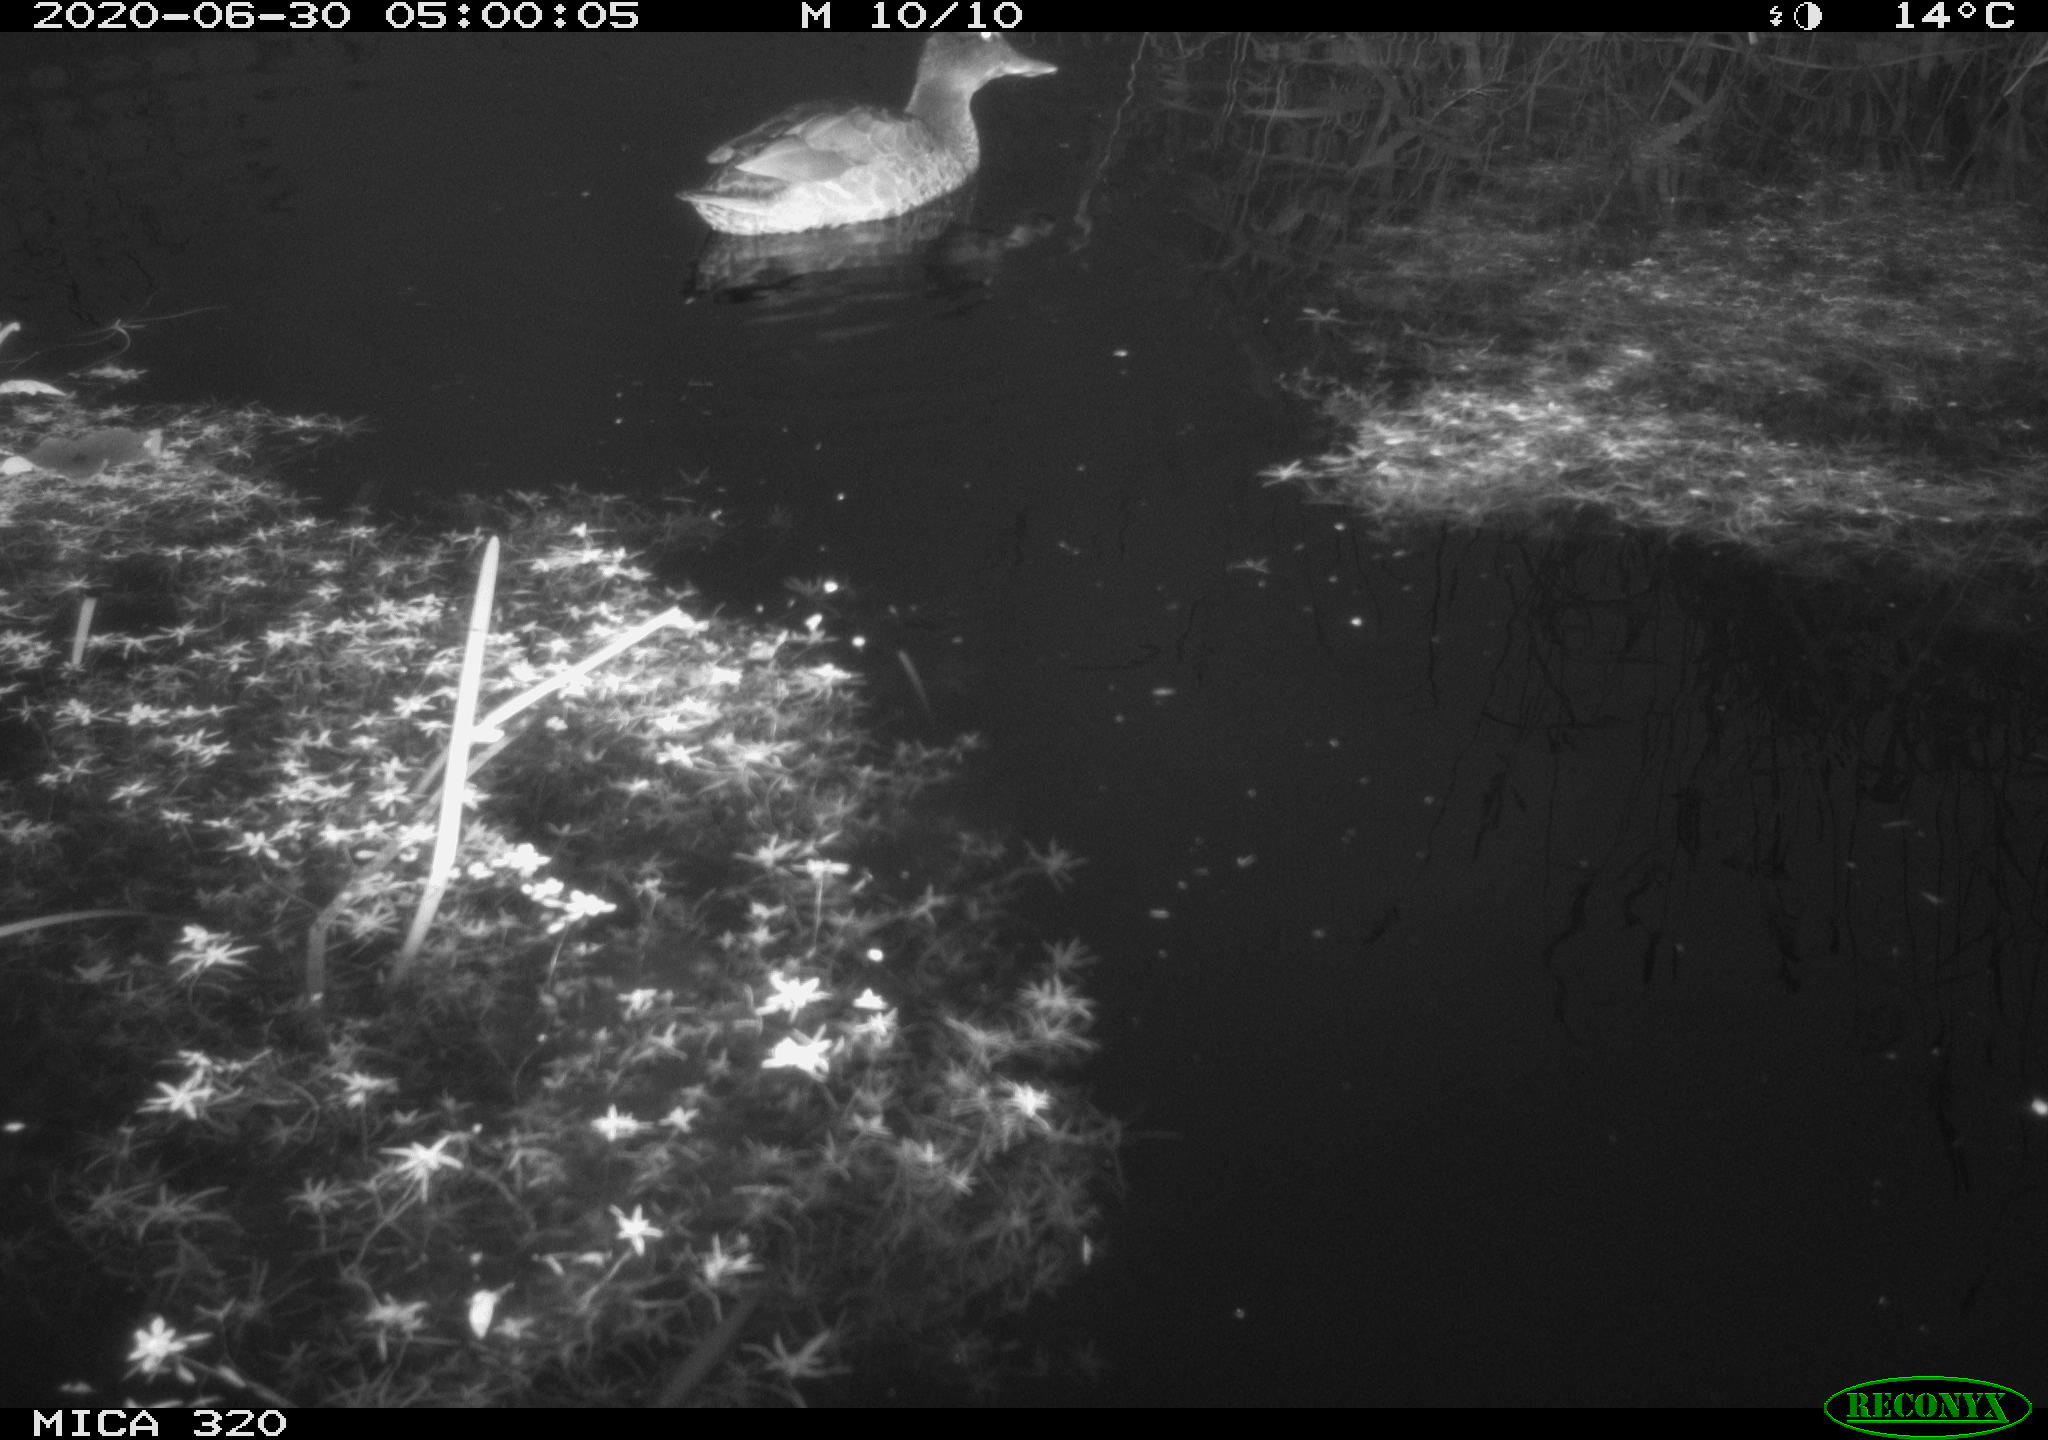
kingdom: Animalia
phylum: Chordata
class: Aves
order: Anseriformes
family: Anatidae
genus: Anas
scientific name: Anas platyrhynchos
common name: Mallard
